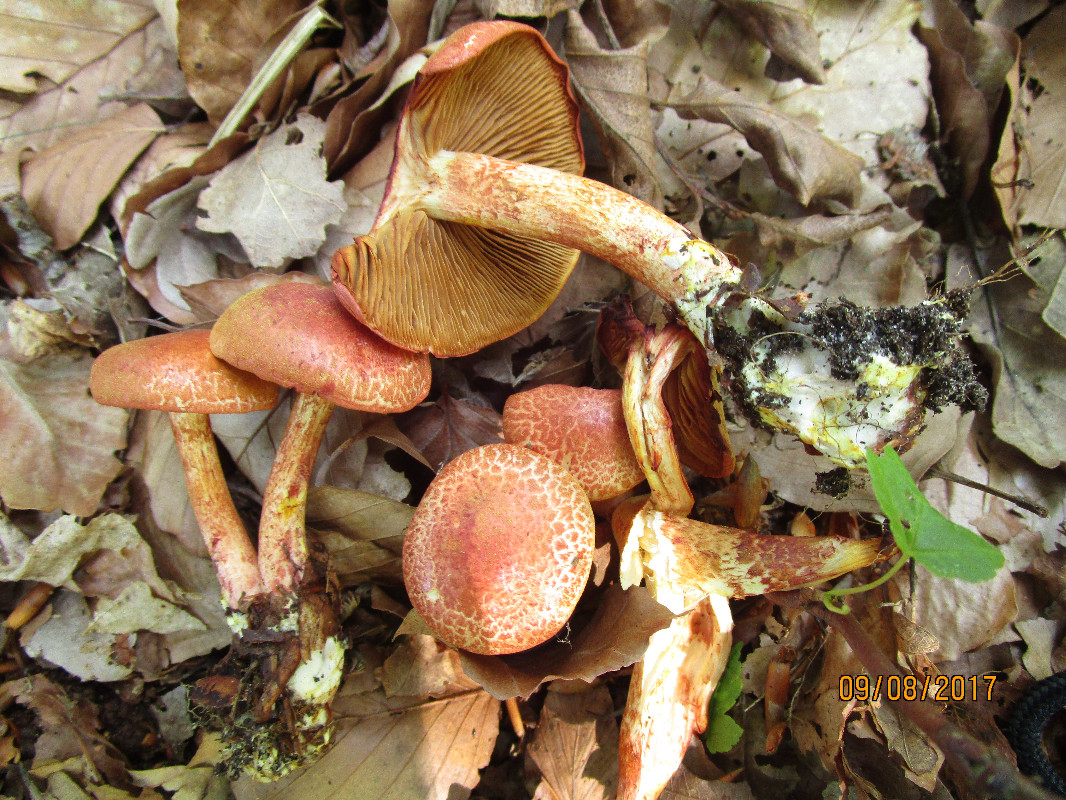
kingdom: Fungi
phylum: Basidiomycota
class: Agaricomycetes
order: Agaricales
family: Cortinariaceae
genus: Cortinarius
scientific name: Cortinarius bolaris
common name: cinnoberskællet slørhat
